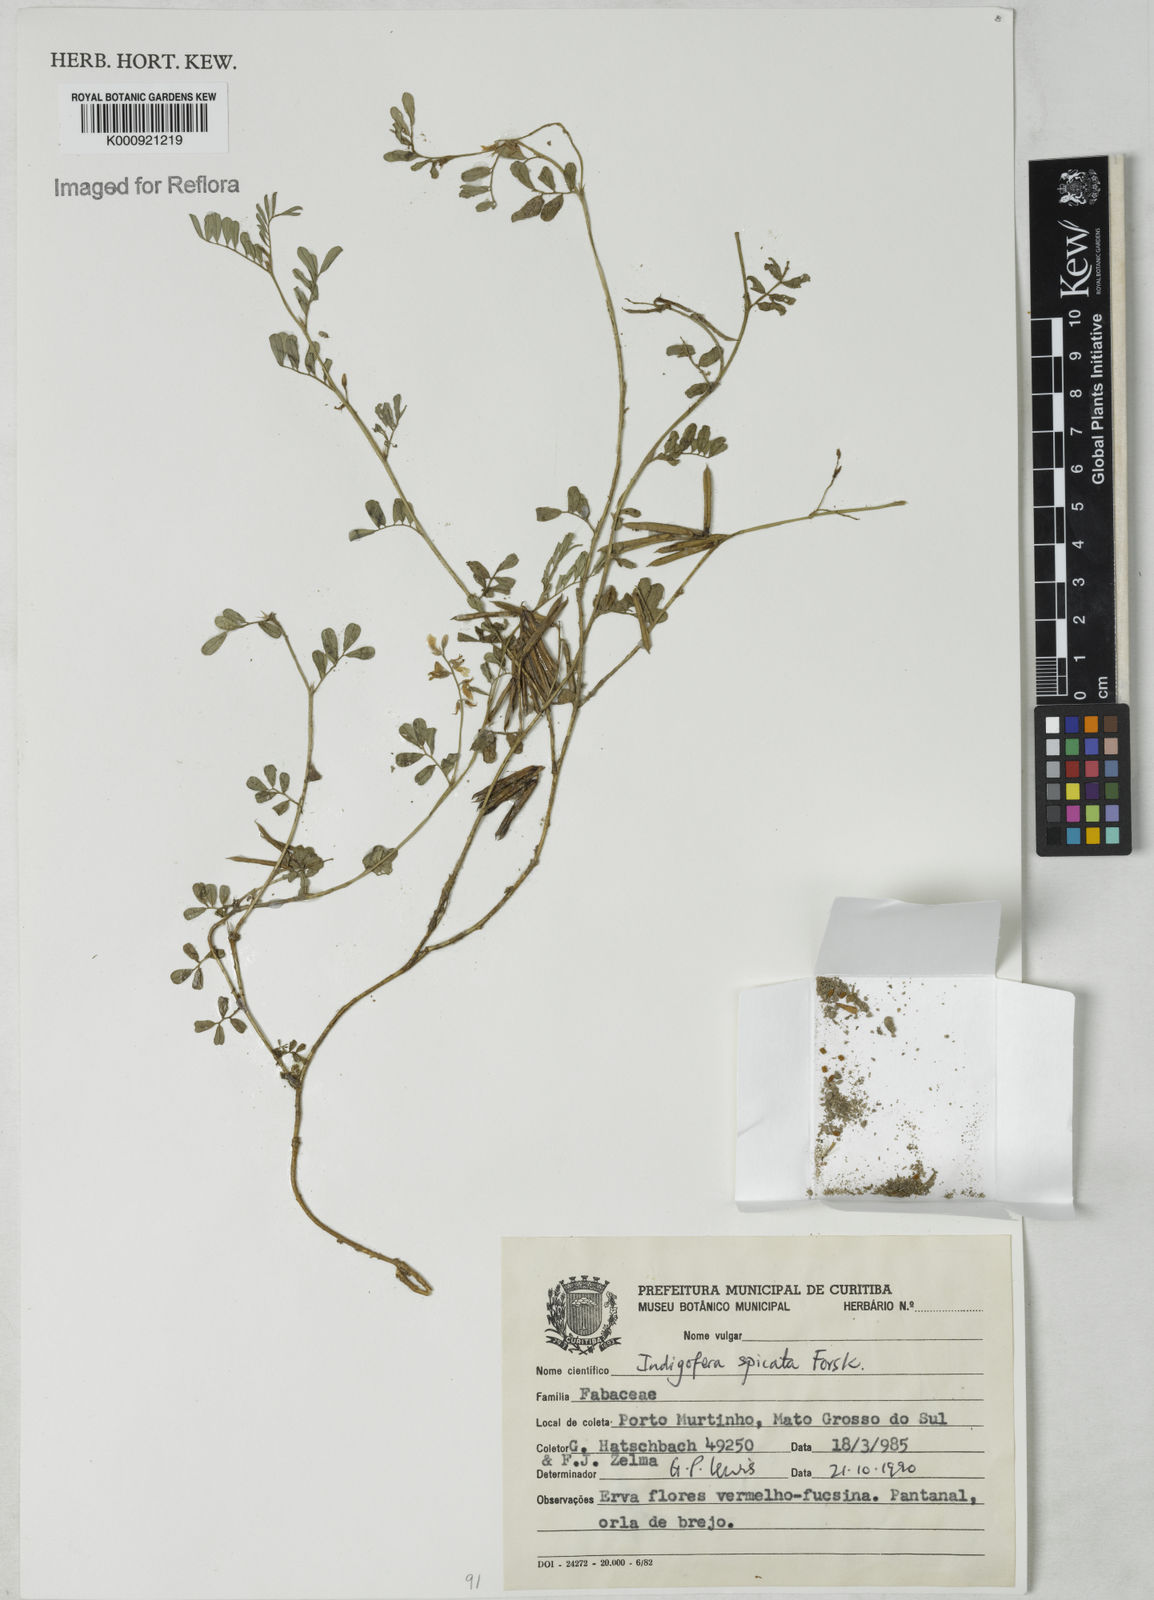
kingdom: Plantae
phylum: Tracheophyta
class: Magnoliopsida
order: Fabales
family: Fabaceae
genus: Indigofera
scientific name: Indigofera hendecaphylla
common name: Trailing indigo
